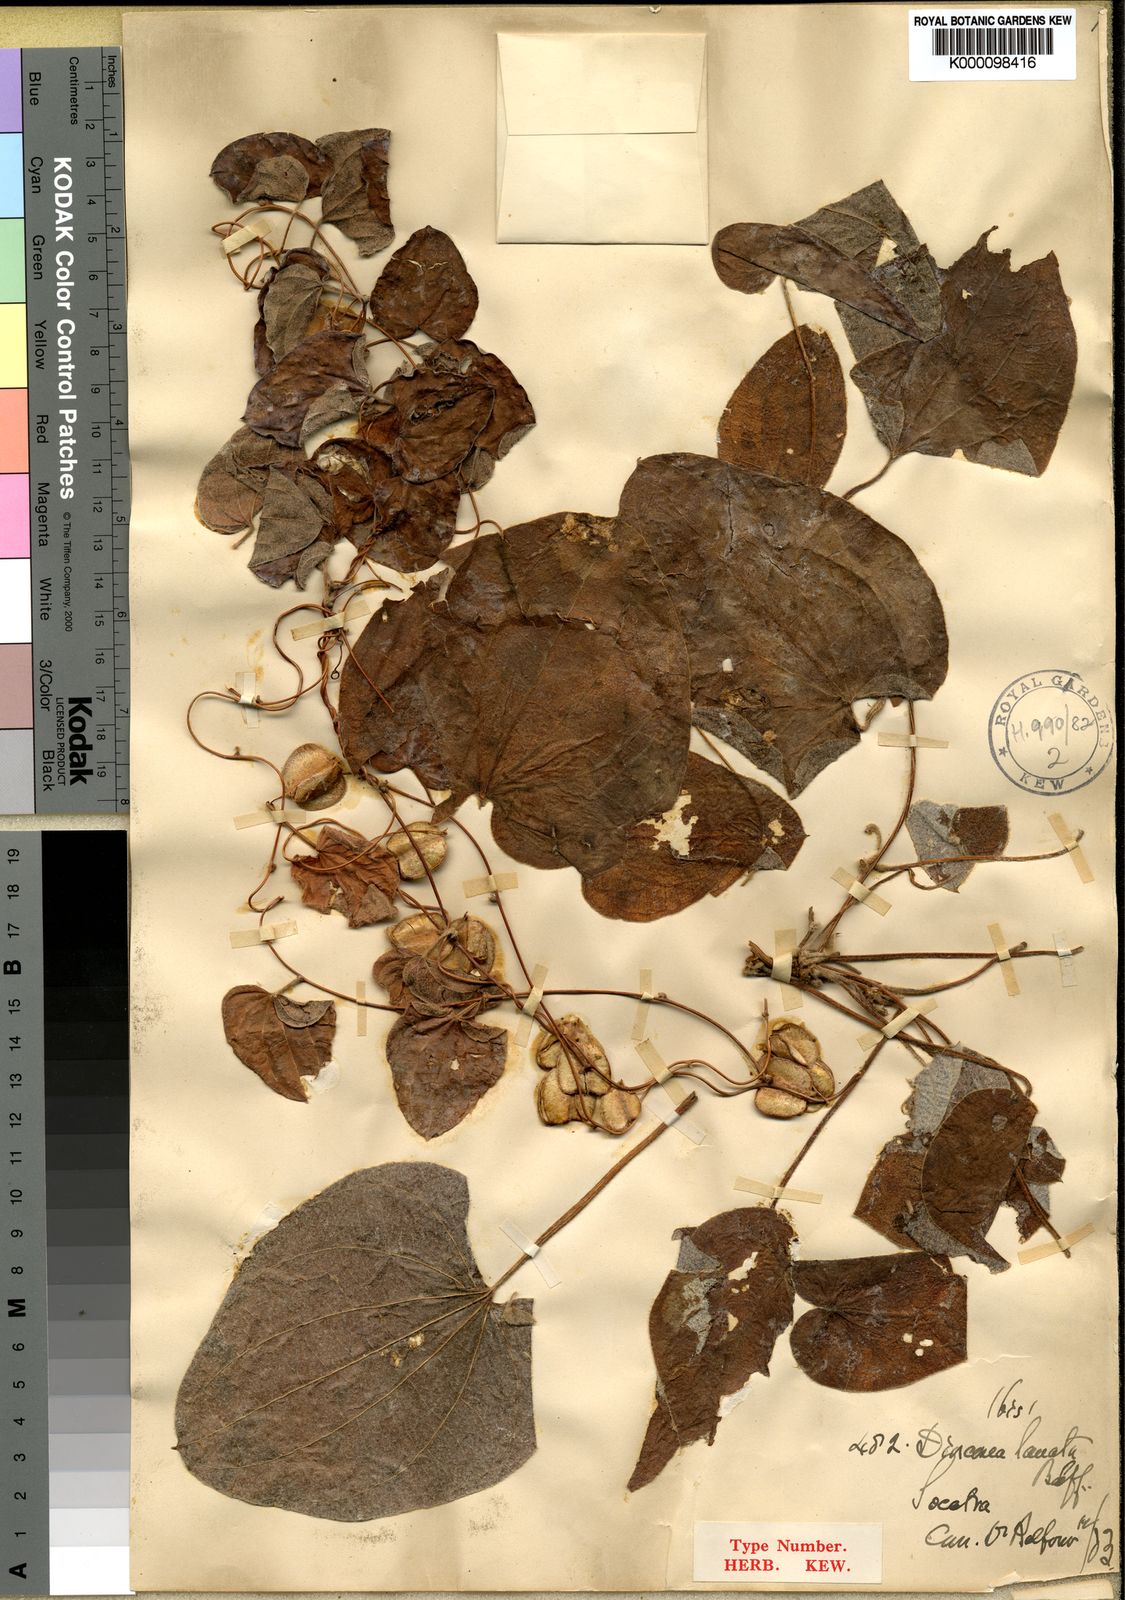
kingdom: Plantae
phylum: Tracheophyta
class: Liliopsida
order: Dioscoreales
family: Dioscoreaceae
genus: Dioscorea
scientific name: Dioscorea lanata
